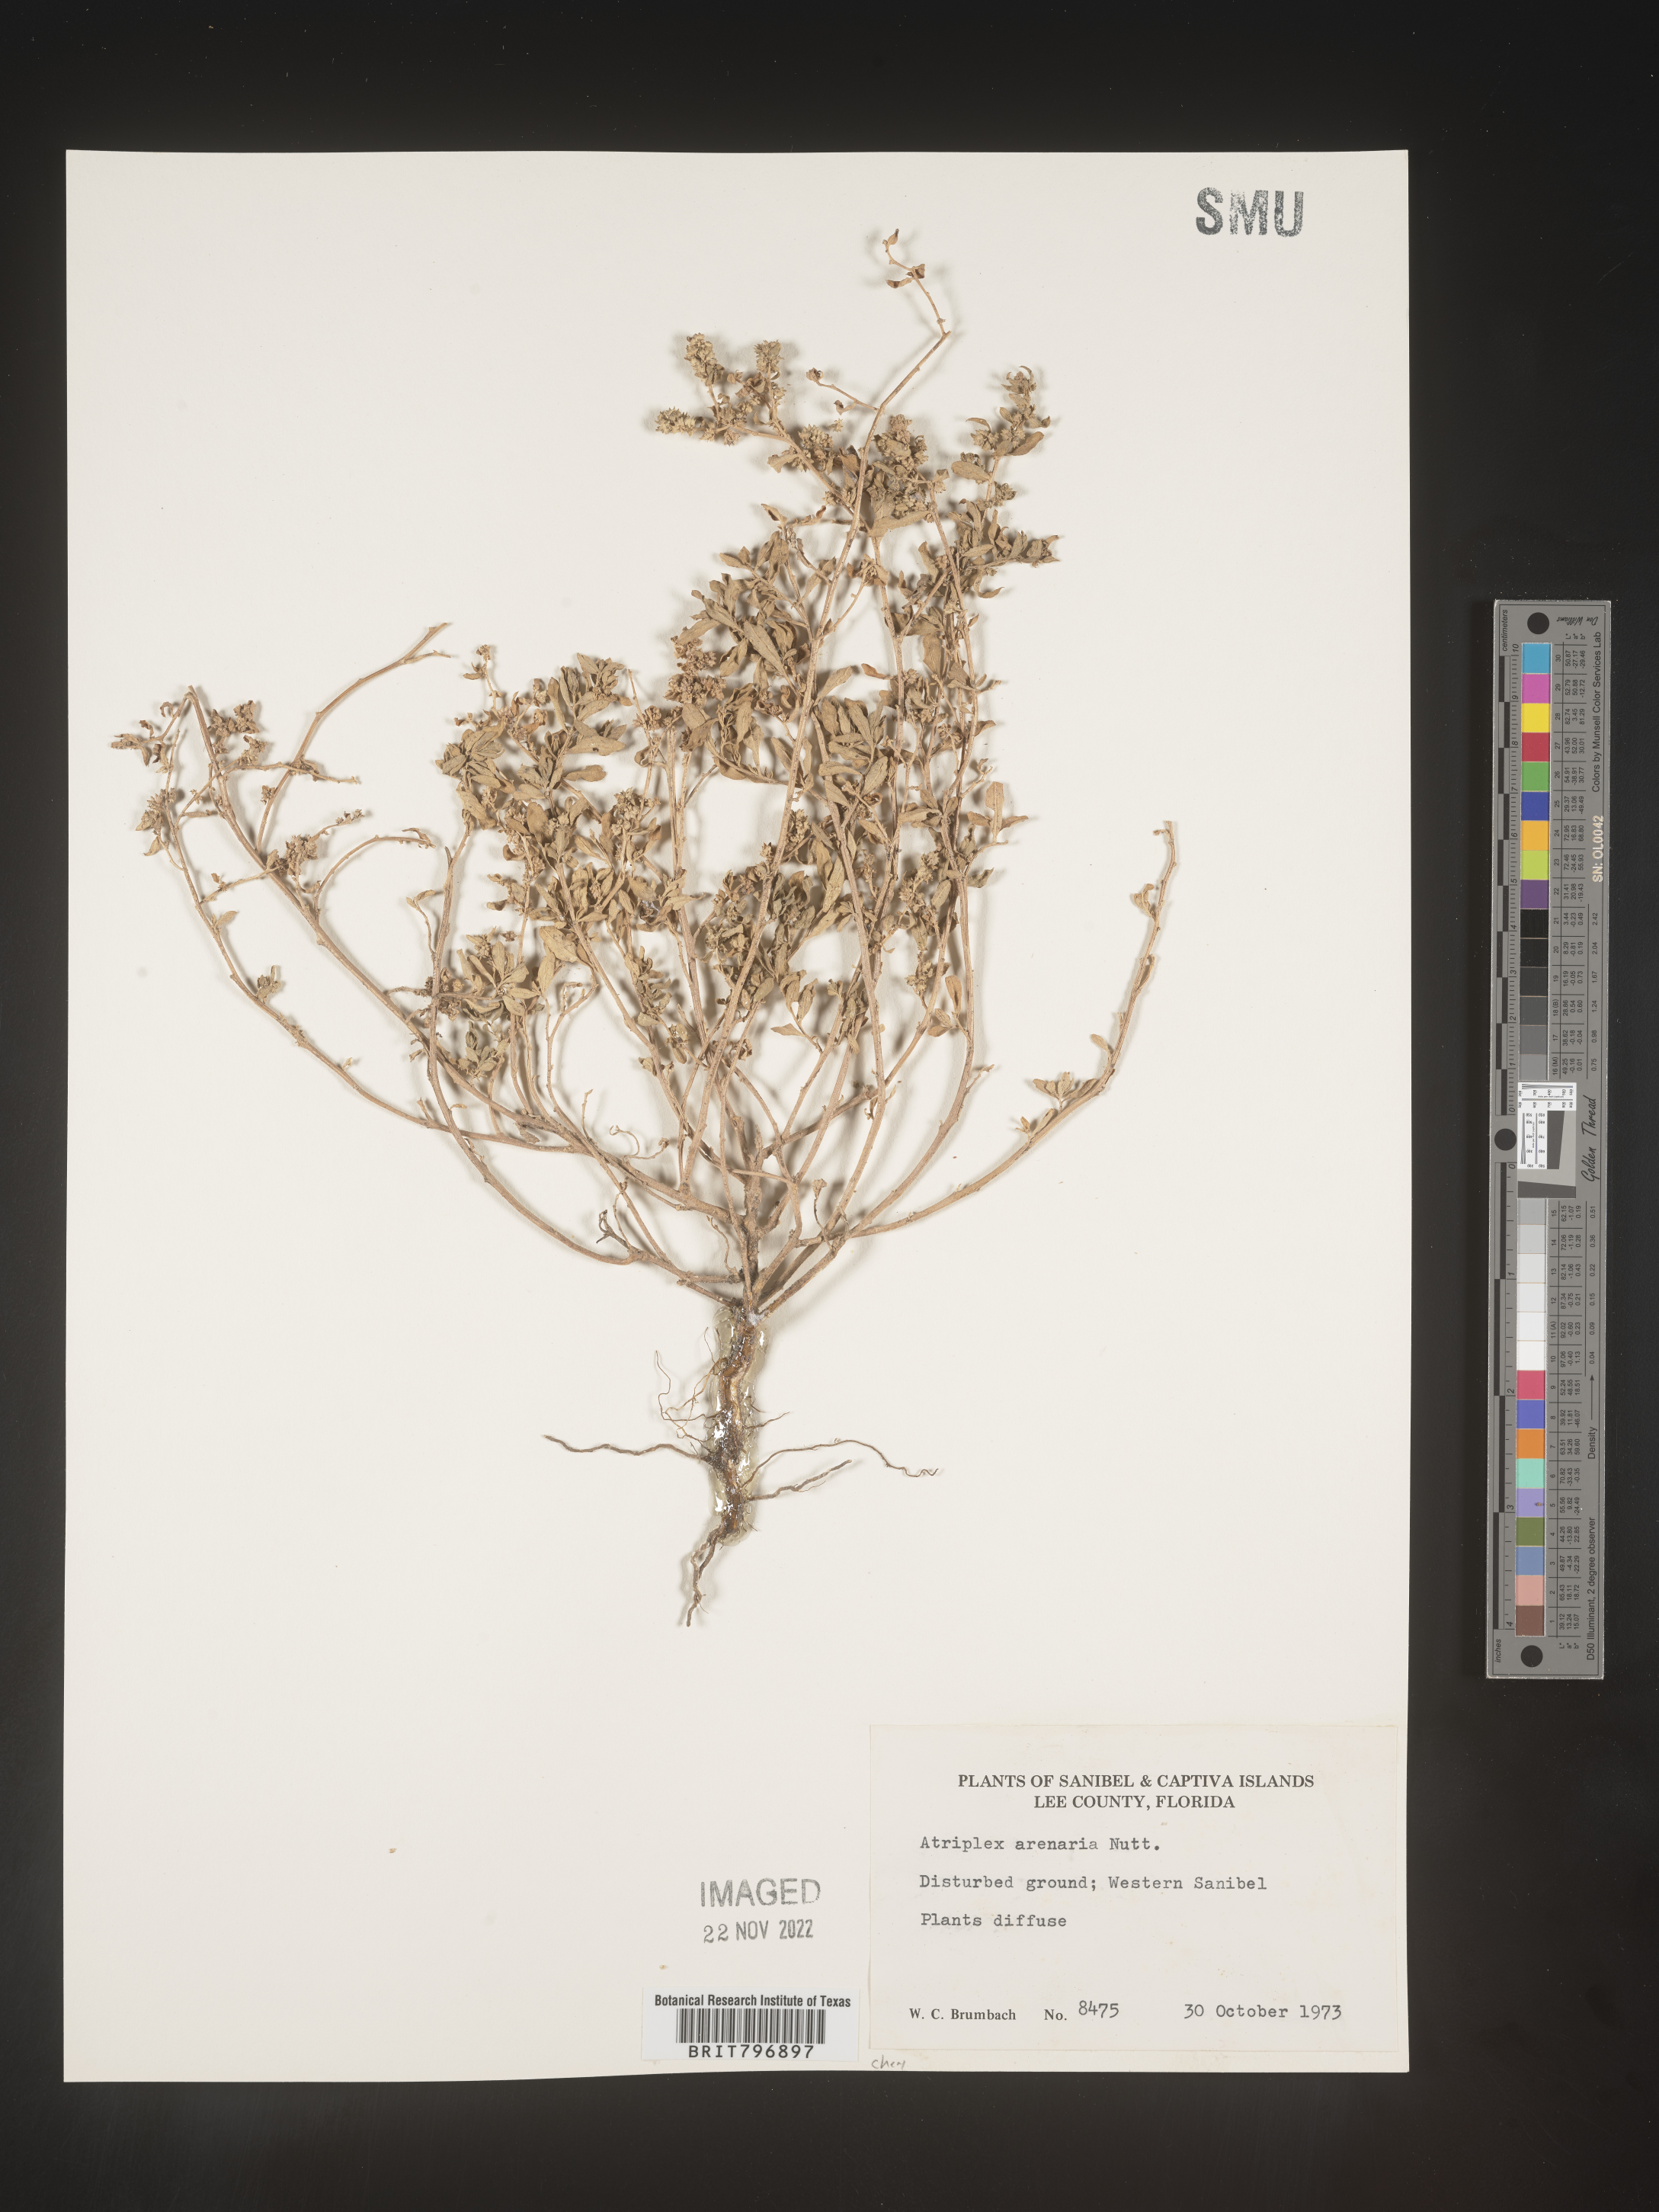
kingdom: Plantae
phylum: Tracheophyta
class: Magnoliopsida
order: Caryophyllales
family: Amaranthaceae
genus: Atriplex
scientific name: Atriplex mucronata
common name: Quelite
